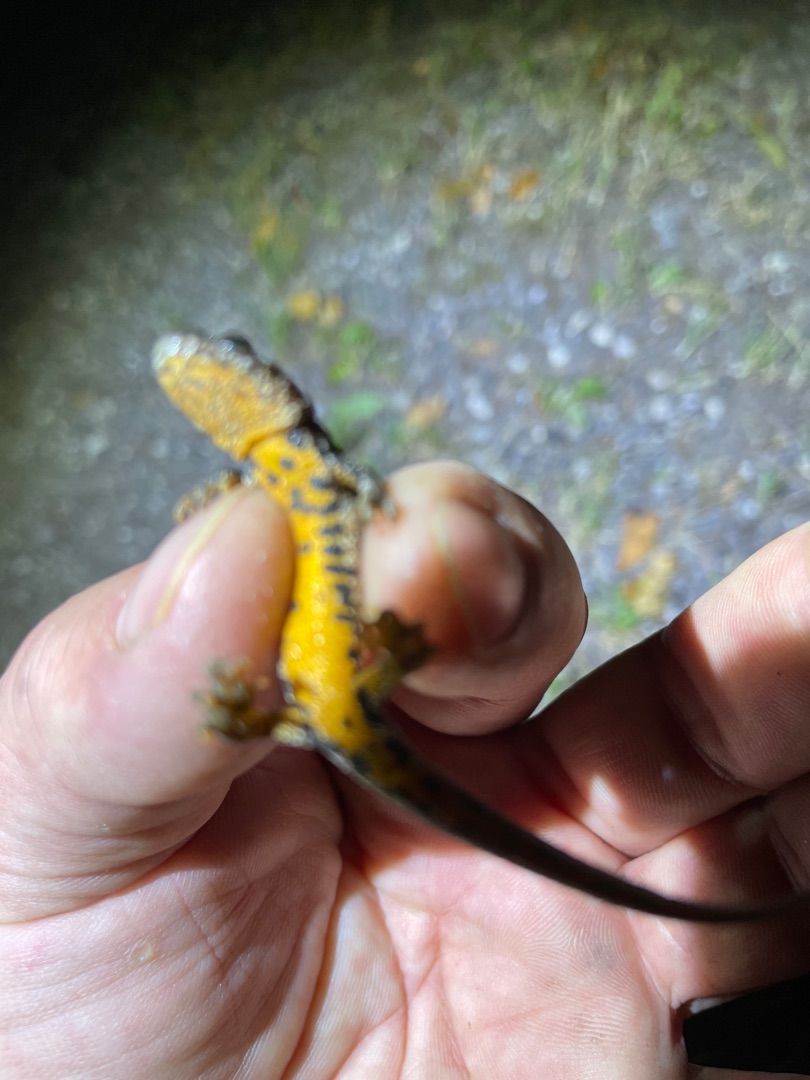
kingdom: Animalia
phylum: Chordata
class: Amphibia
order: Caudata
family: Salamandridae
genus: Triturus
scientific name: Triturus cristatus
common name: Stor vandsalamander
